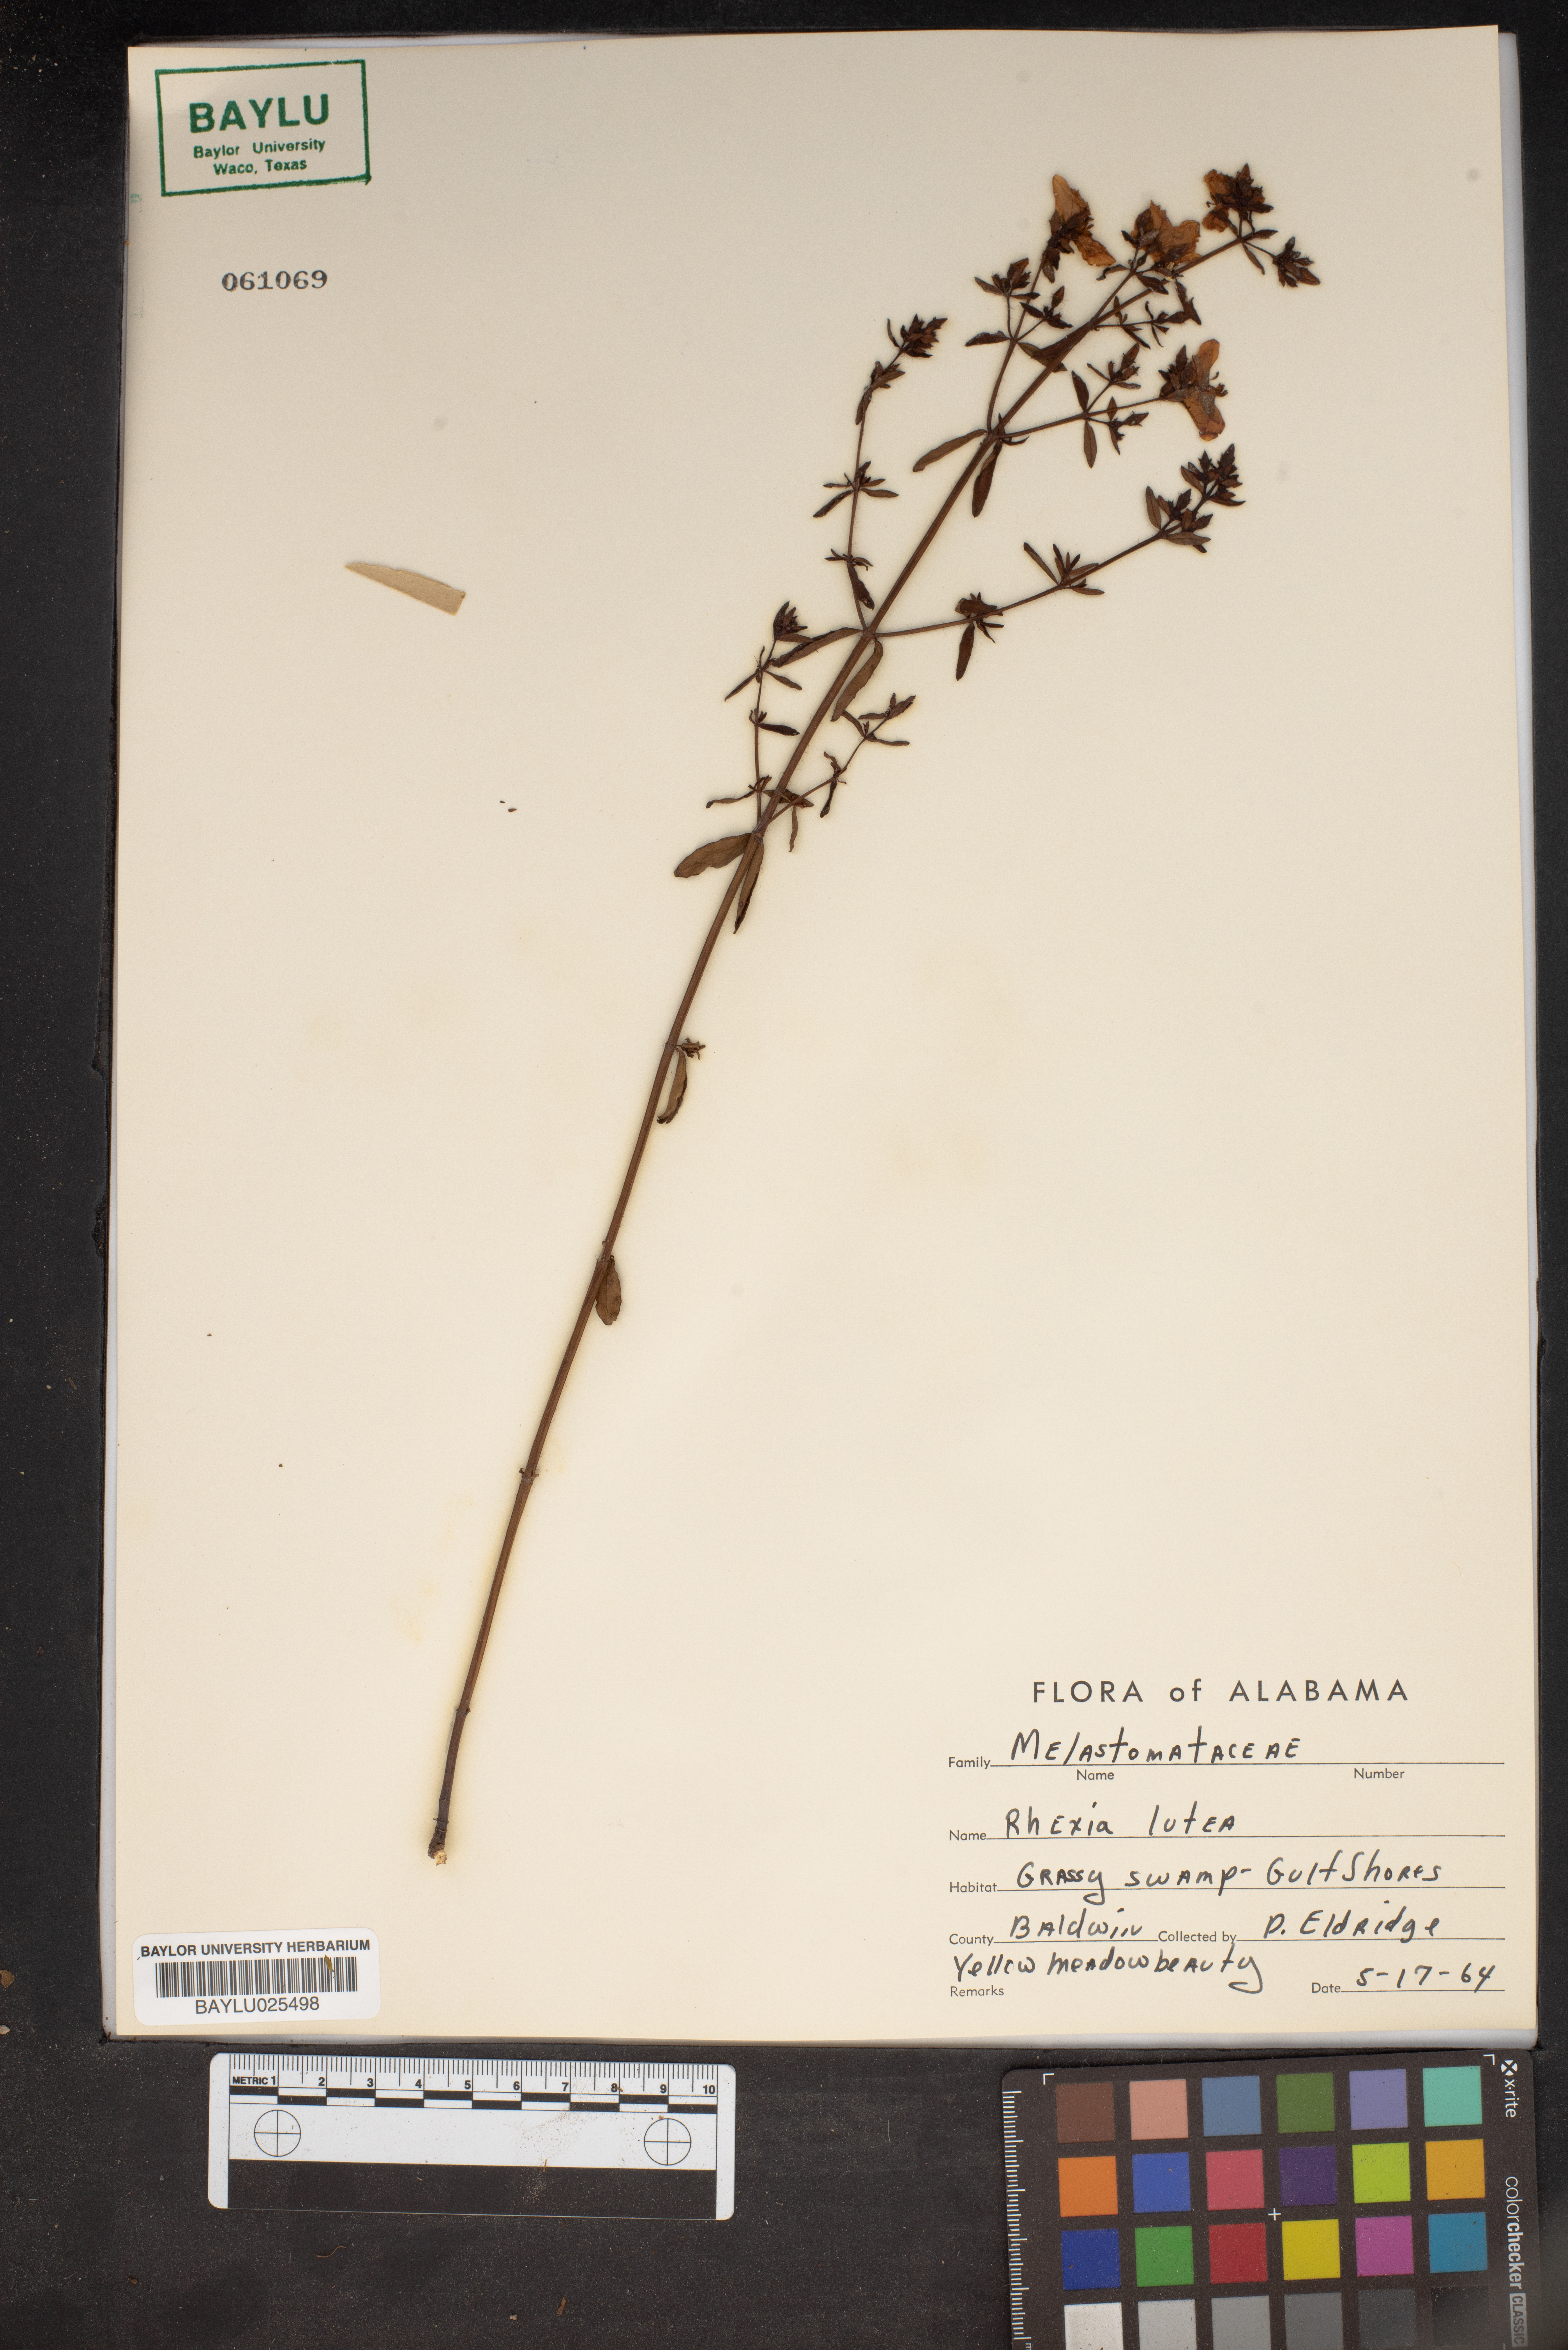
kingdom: Plantae
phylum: Tracheophyta
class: Magnoliopsida
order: Myrtales
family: Melastomataceae
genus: Rhexia
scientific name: Rhexia lutea
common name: Golden meadow-beauty
